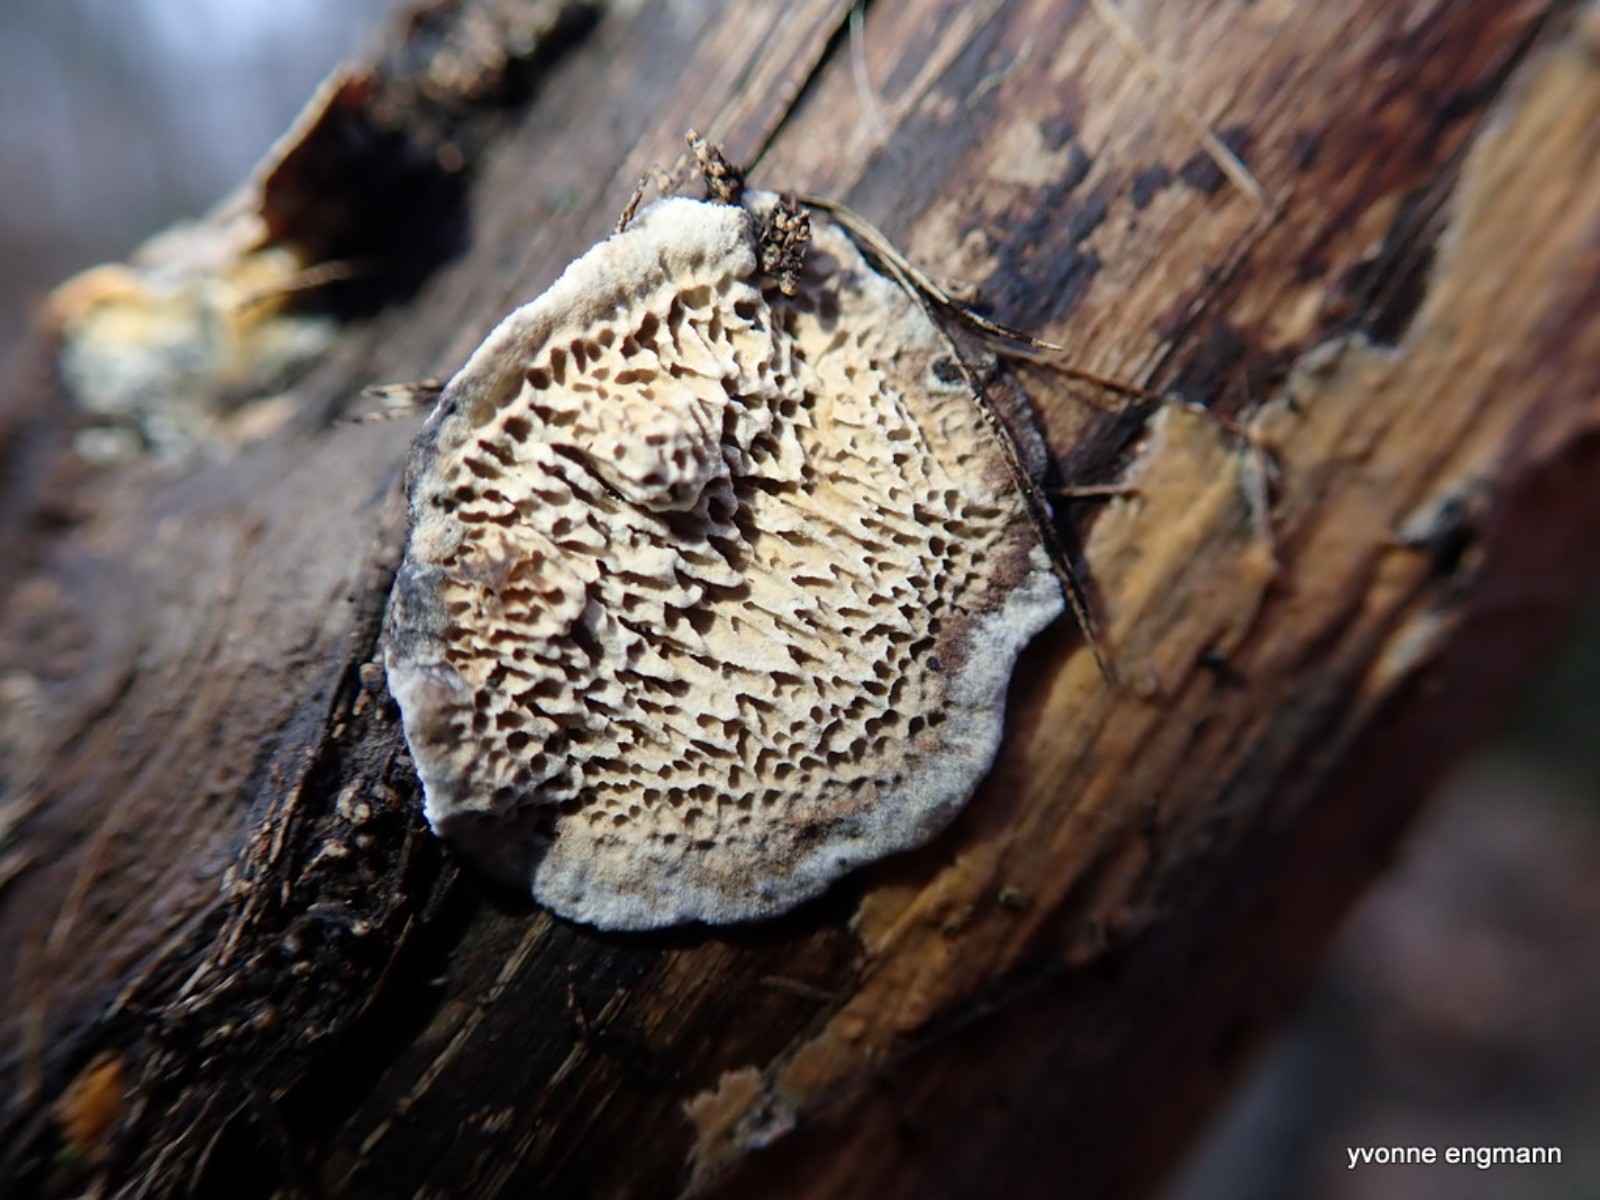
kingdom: Fungi
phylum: Basidiomycota
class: Agaricomycetes
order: Polyporales
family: Polyporaceae
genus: Podofomes
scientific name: Podofomes mollis
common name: blød begporesvamp
